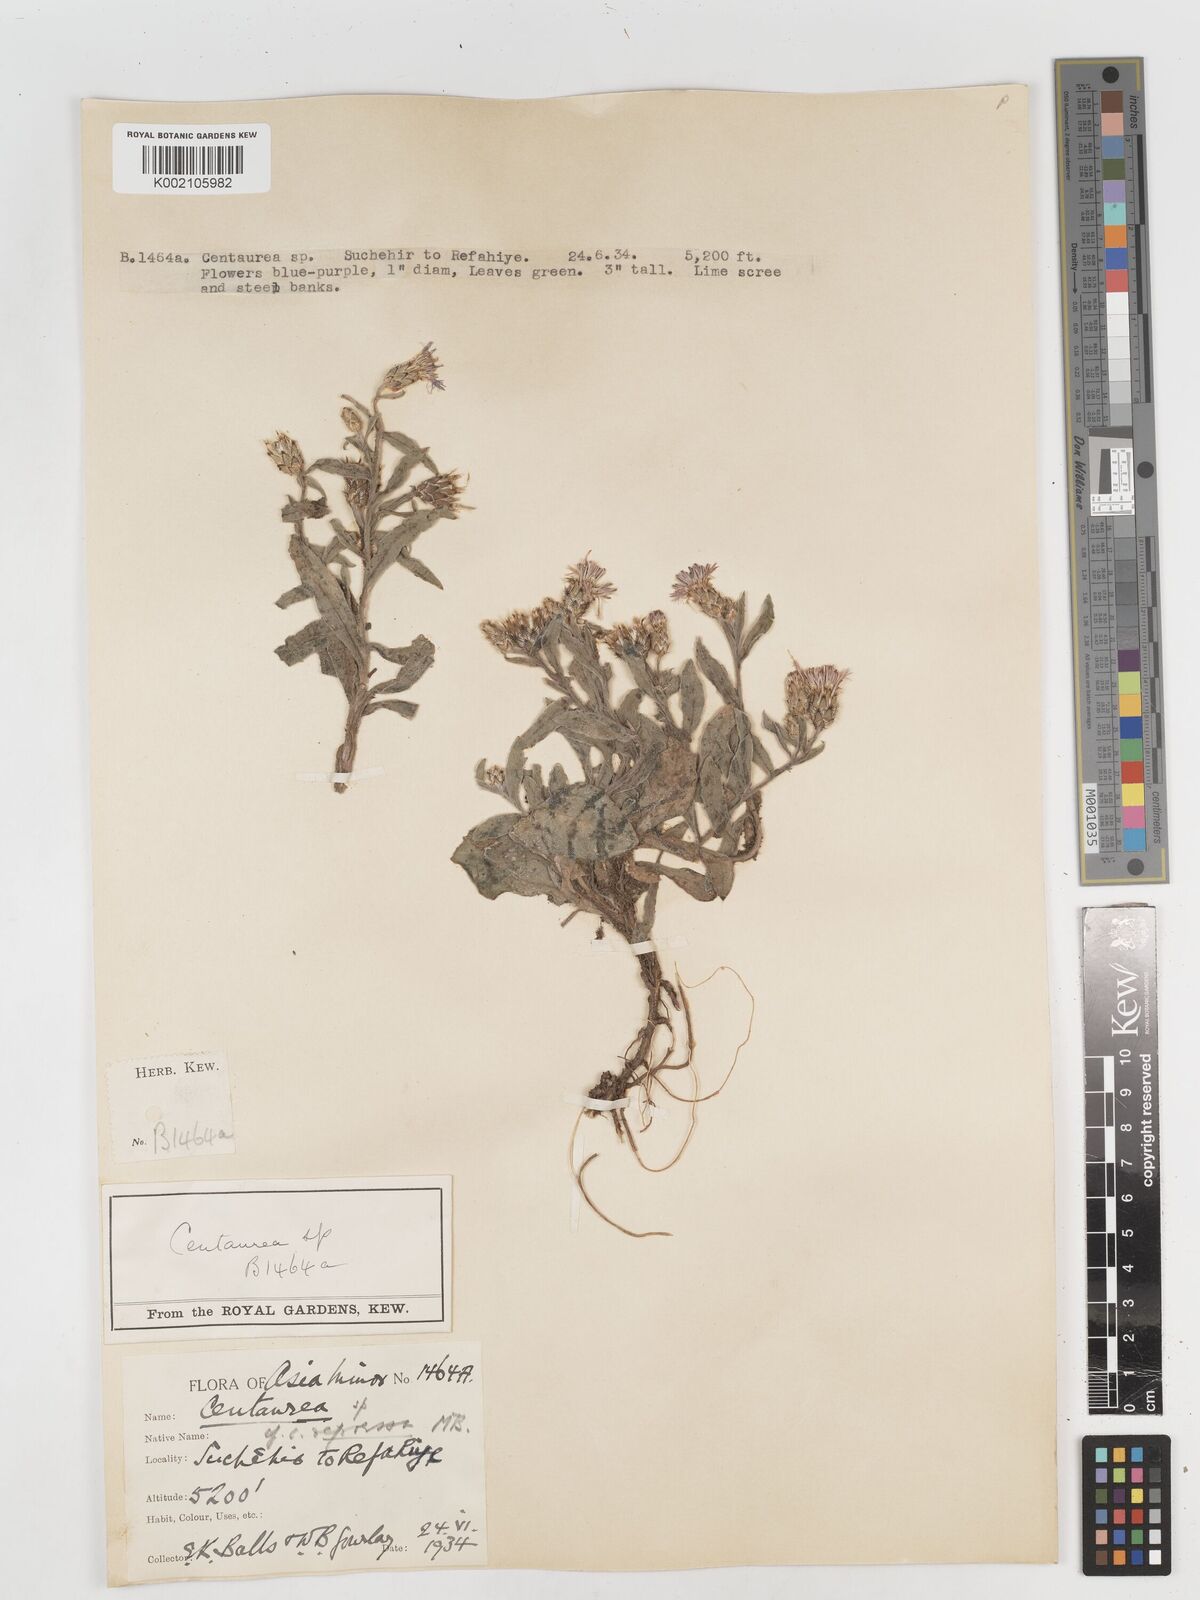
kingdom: Plantae
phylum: Tracheophyta
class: Magnoliopsida
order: Asterales
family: Asteraceae
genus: Centaurea
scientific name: Centaurea
